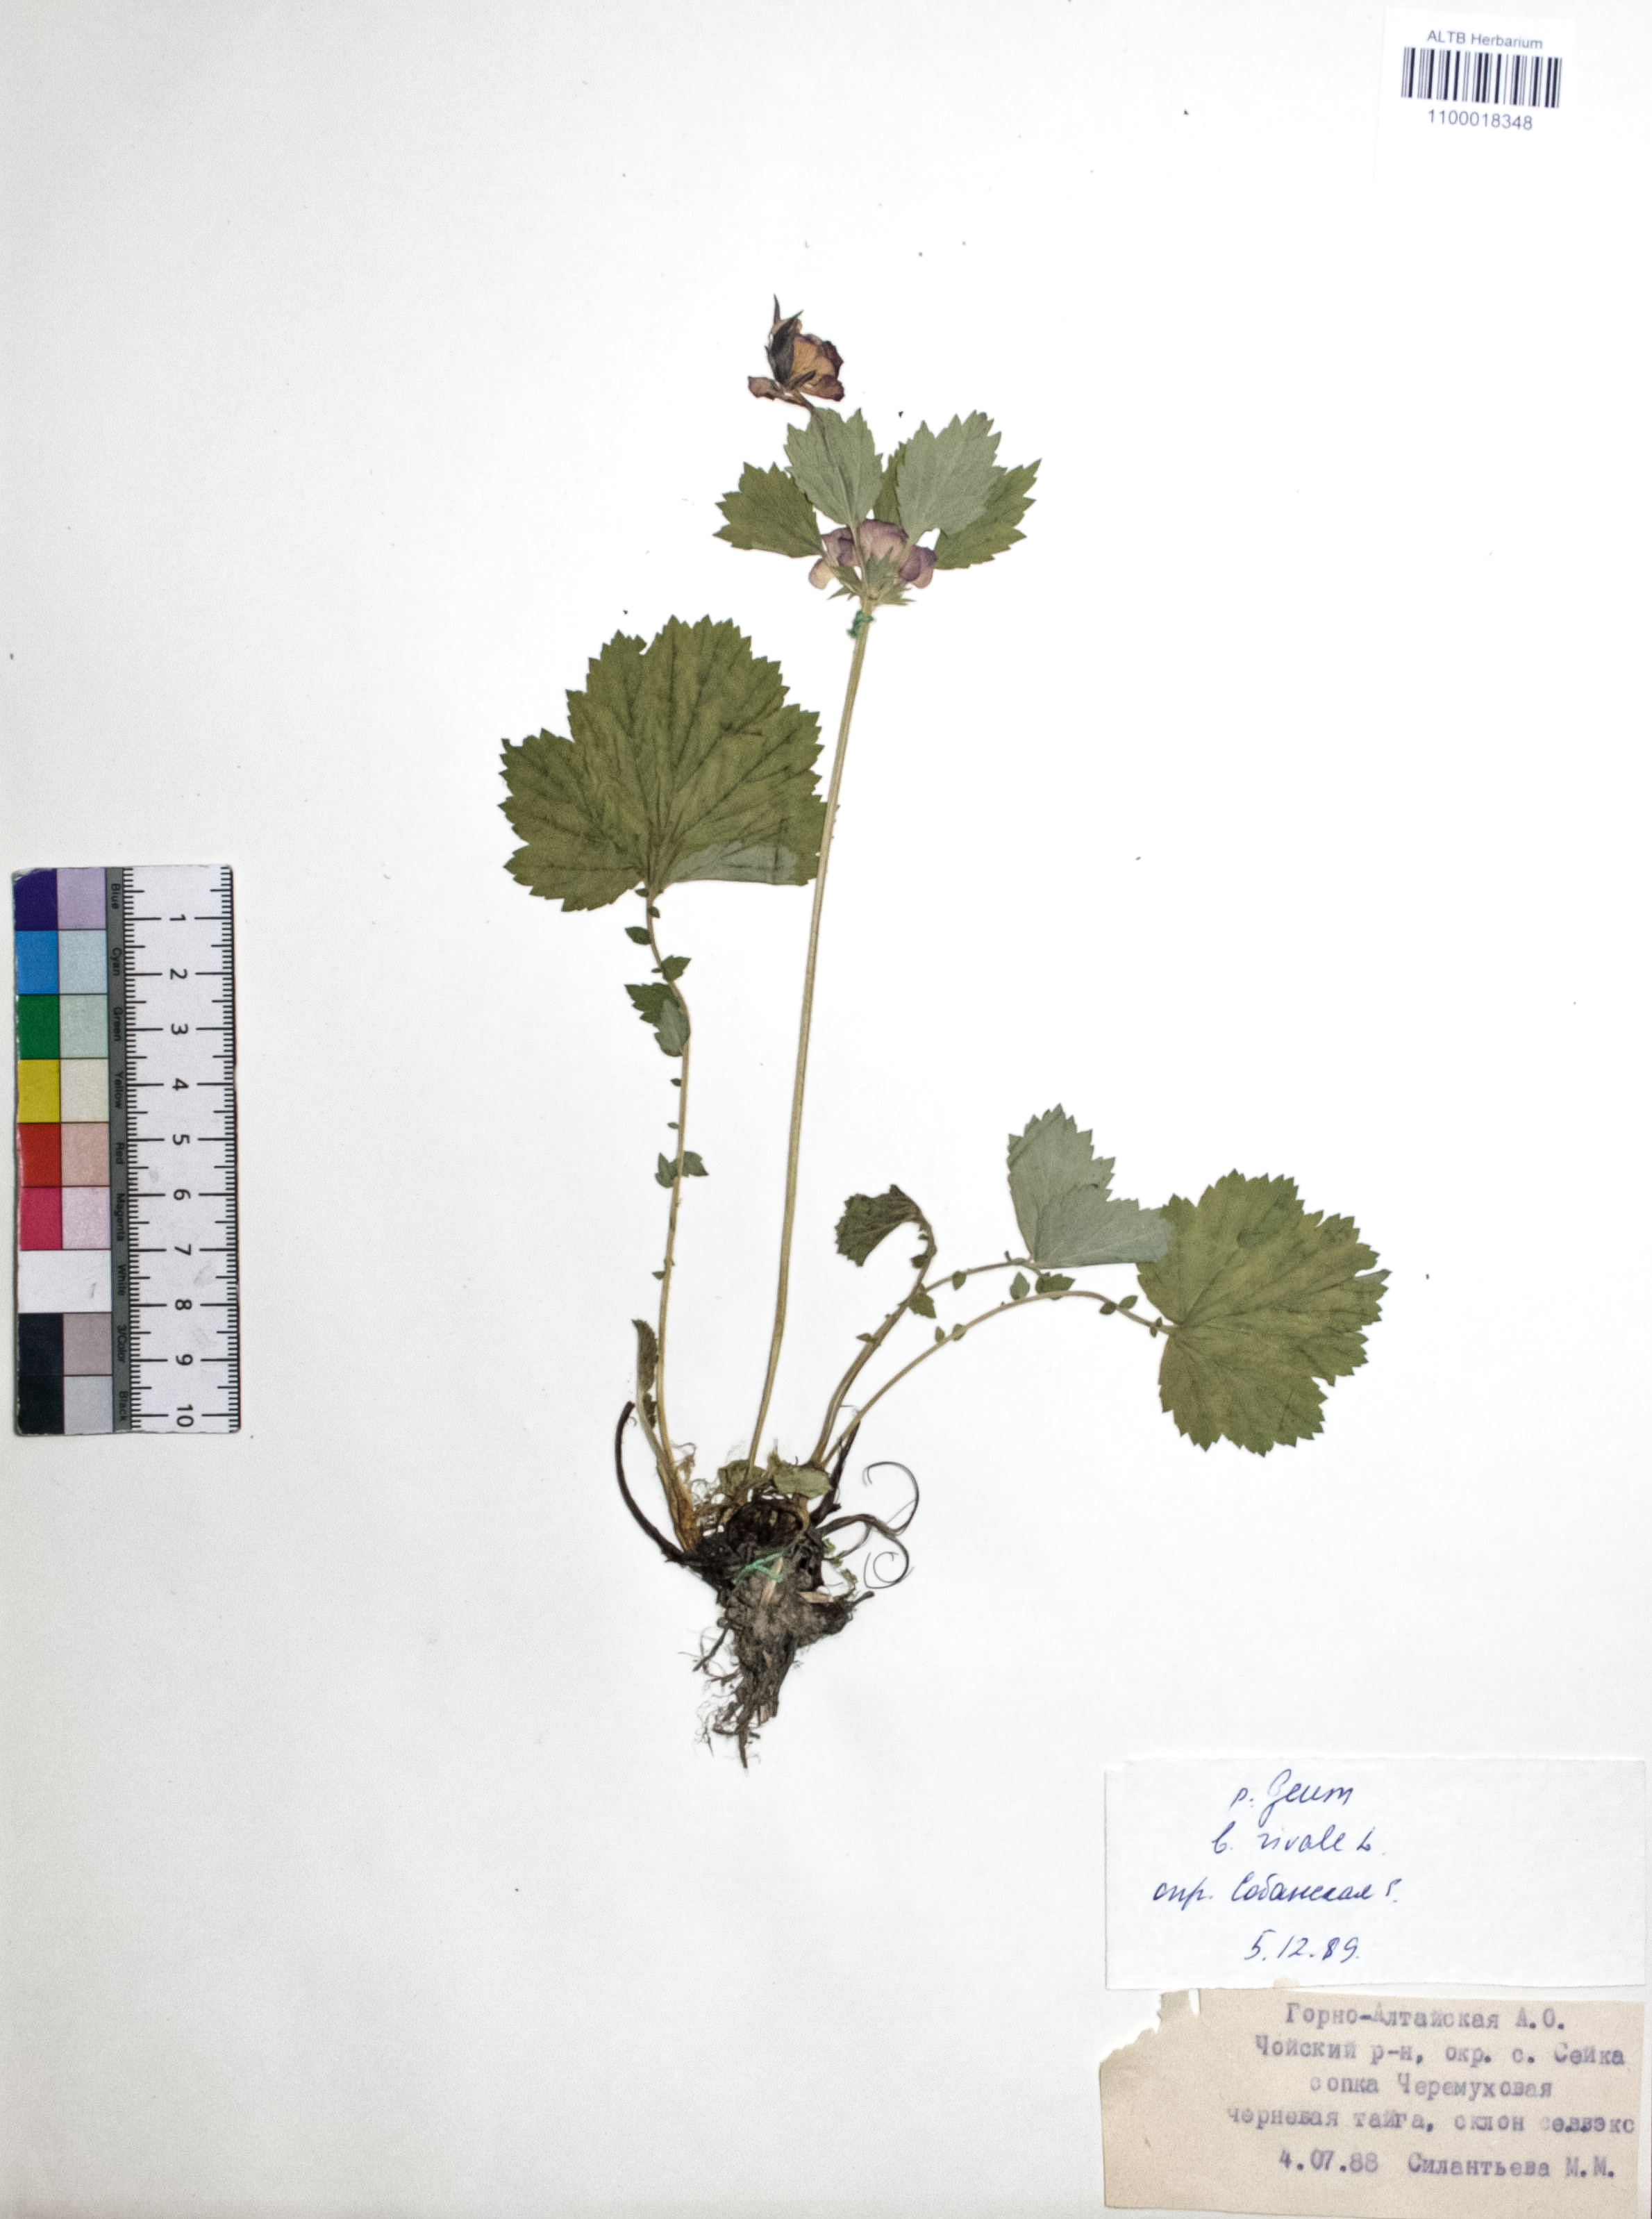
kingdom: Plantae
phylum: Tracheophyta
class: Magnoliopsida
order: Rosales
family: Rosaceae
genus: Geum
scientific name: Geum rivale
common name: Water avens
